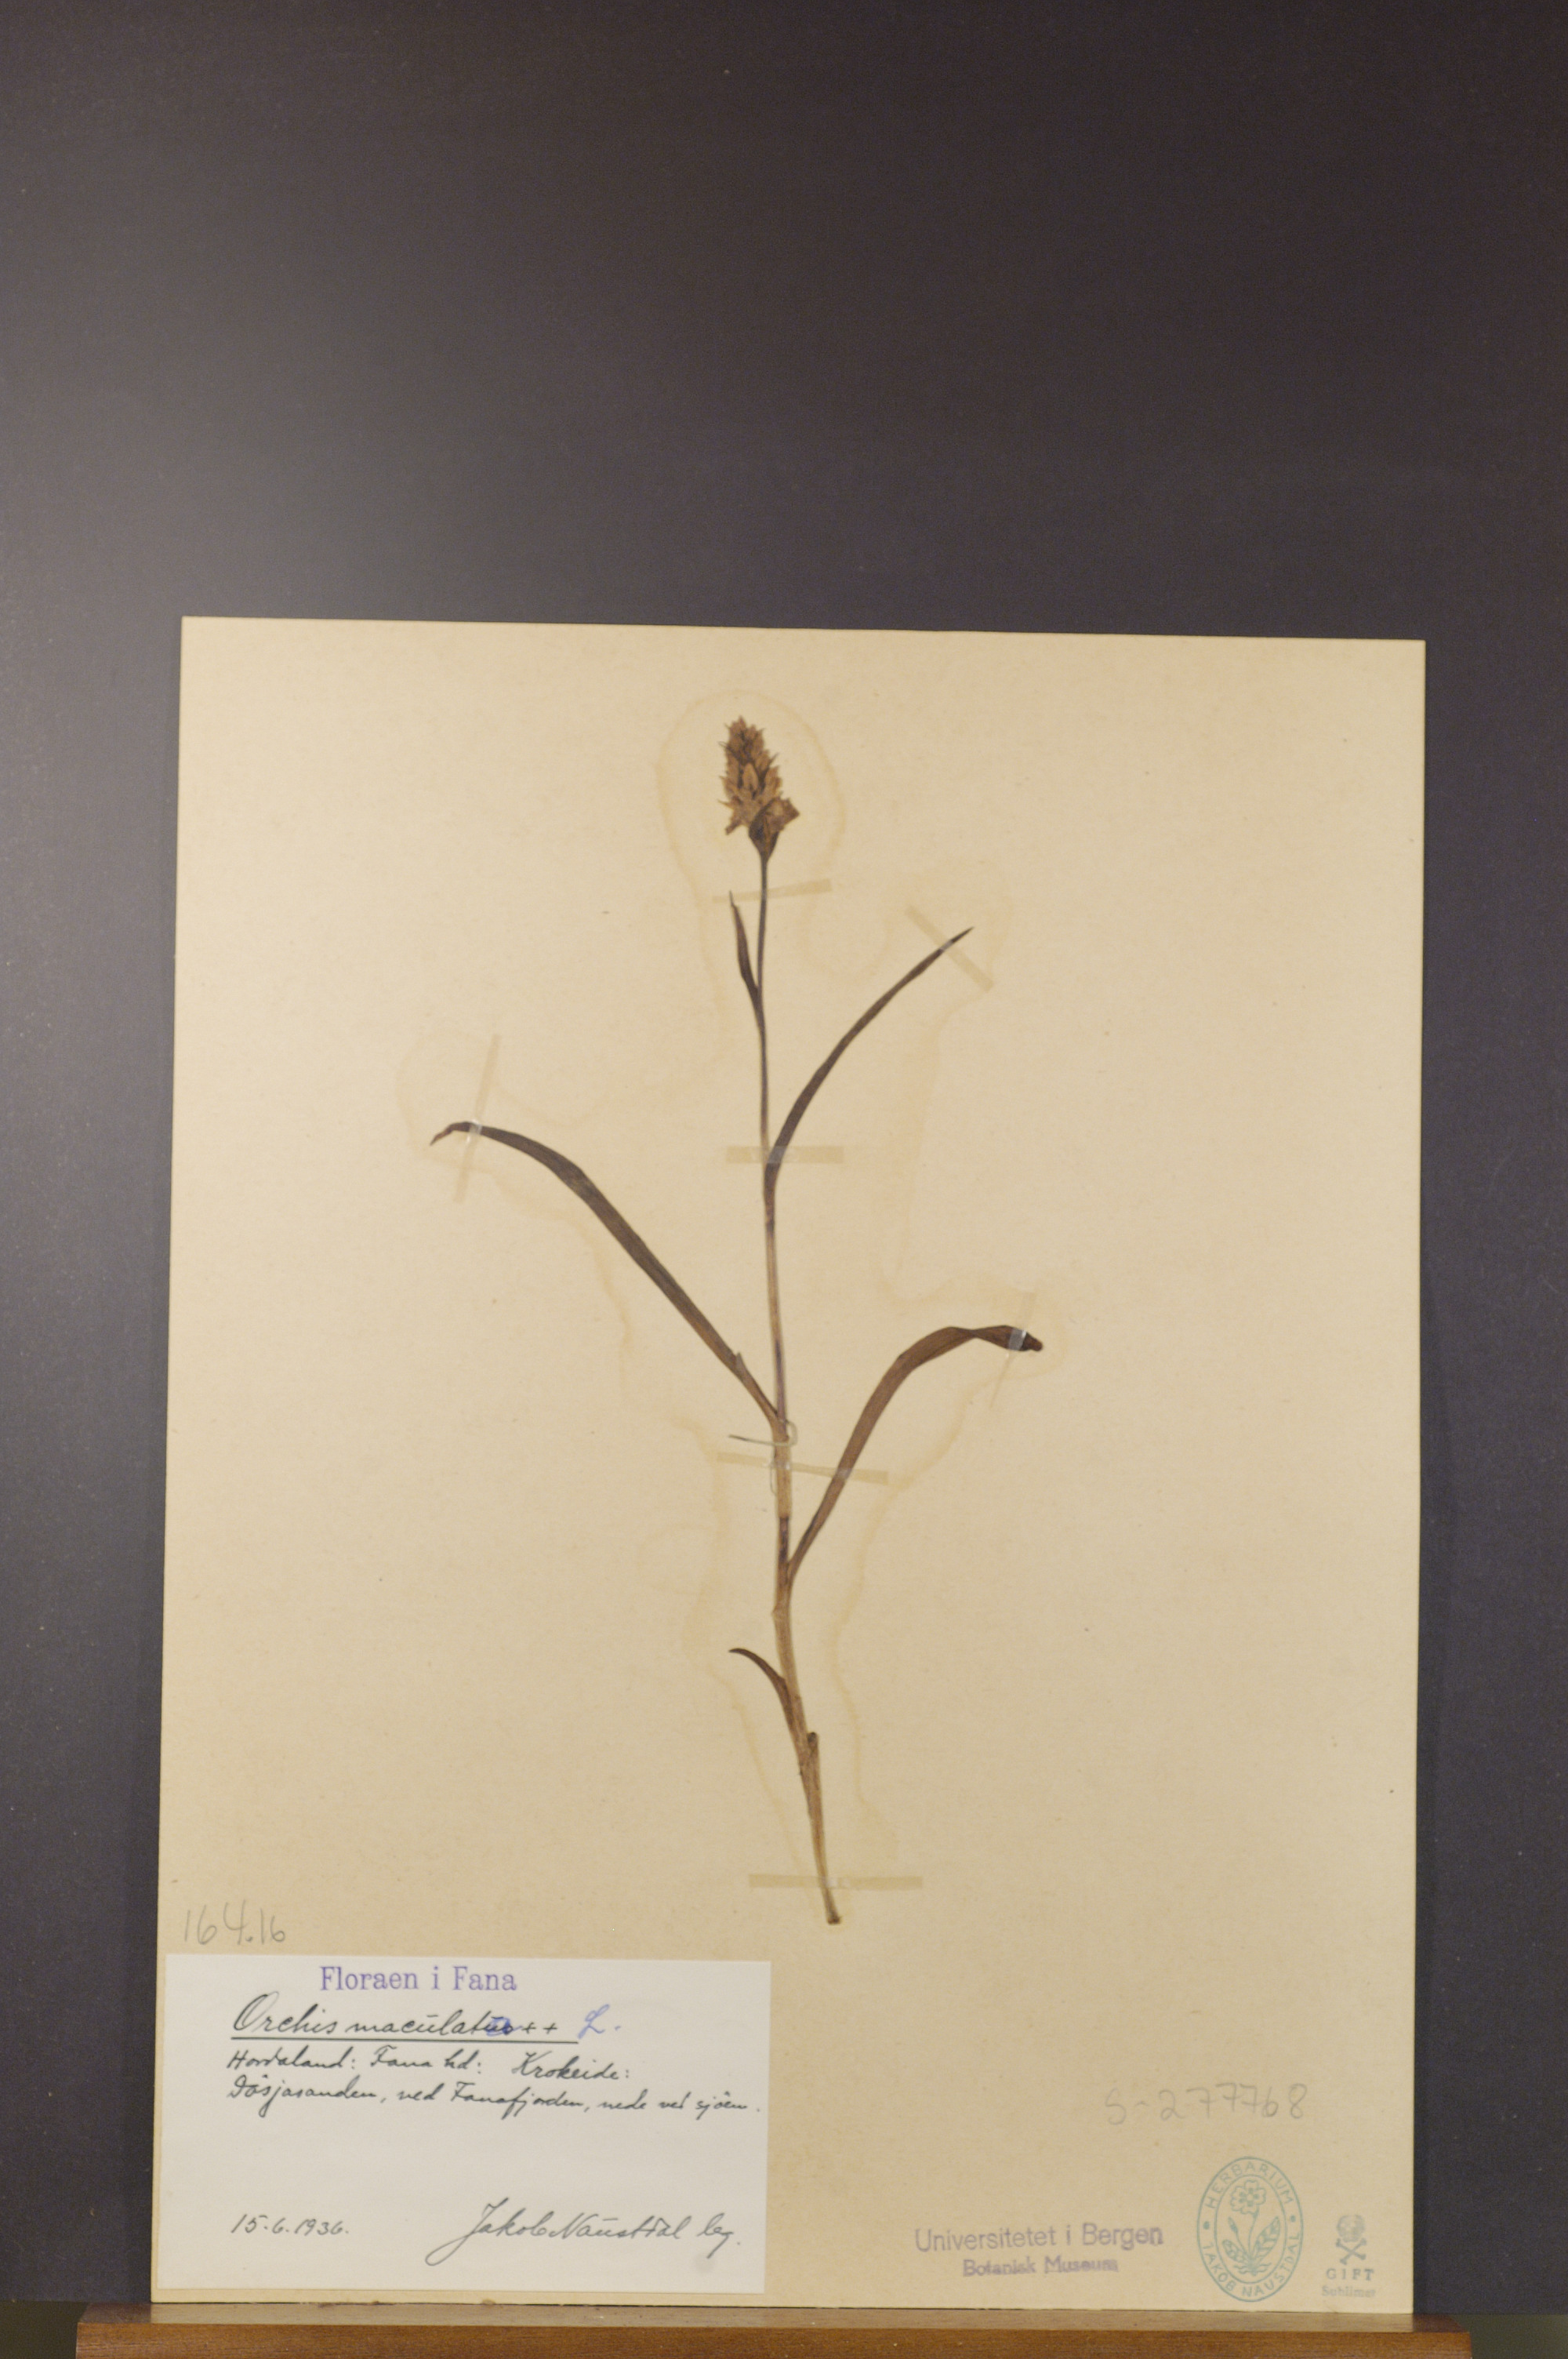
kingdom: Plantae
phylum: Tracheophyta
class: Liliopsida
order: Asparagales
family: Orchidaceae
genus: Dactylorhiza
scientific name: Dactylorhiza maculata
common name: Heath spotted-orchid
